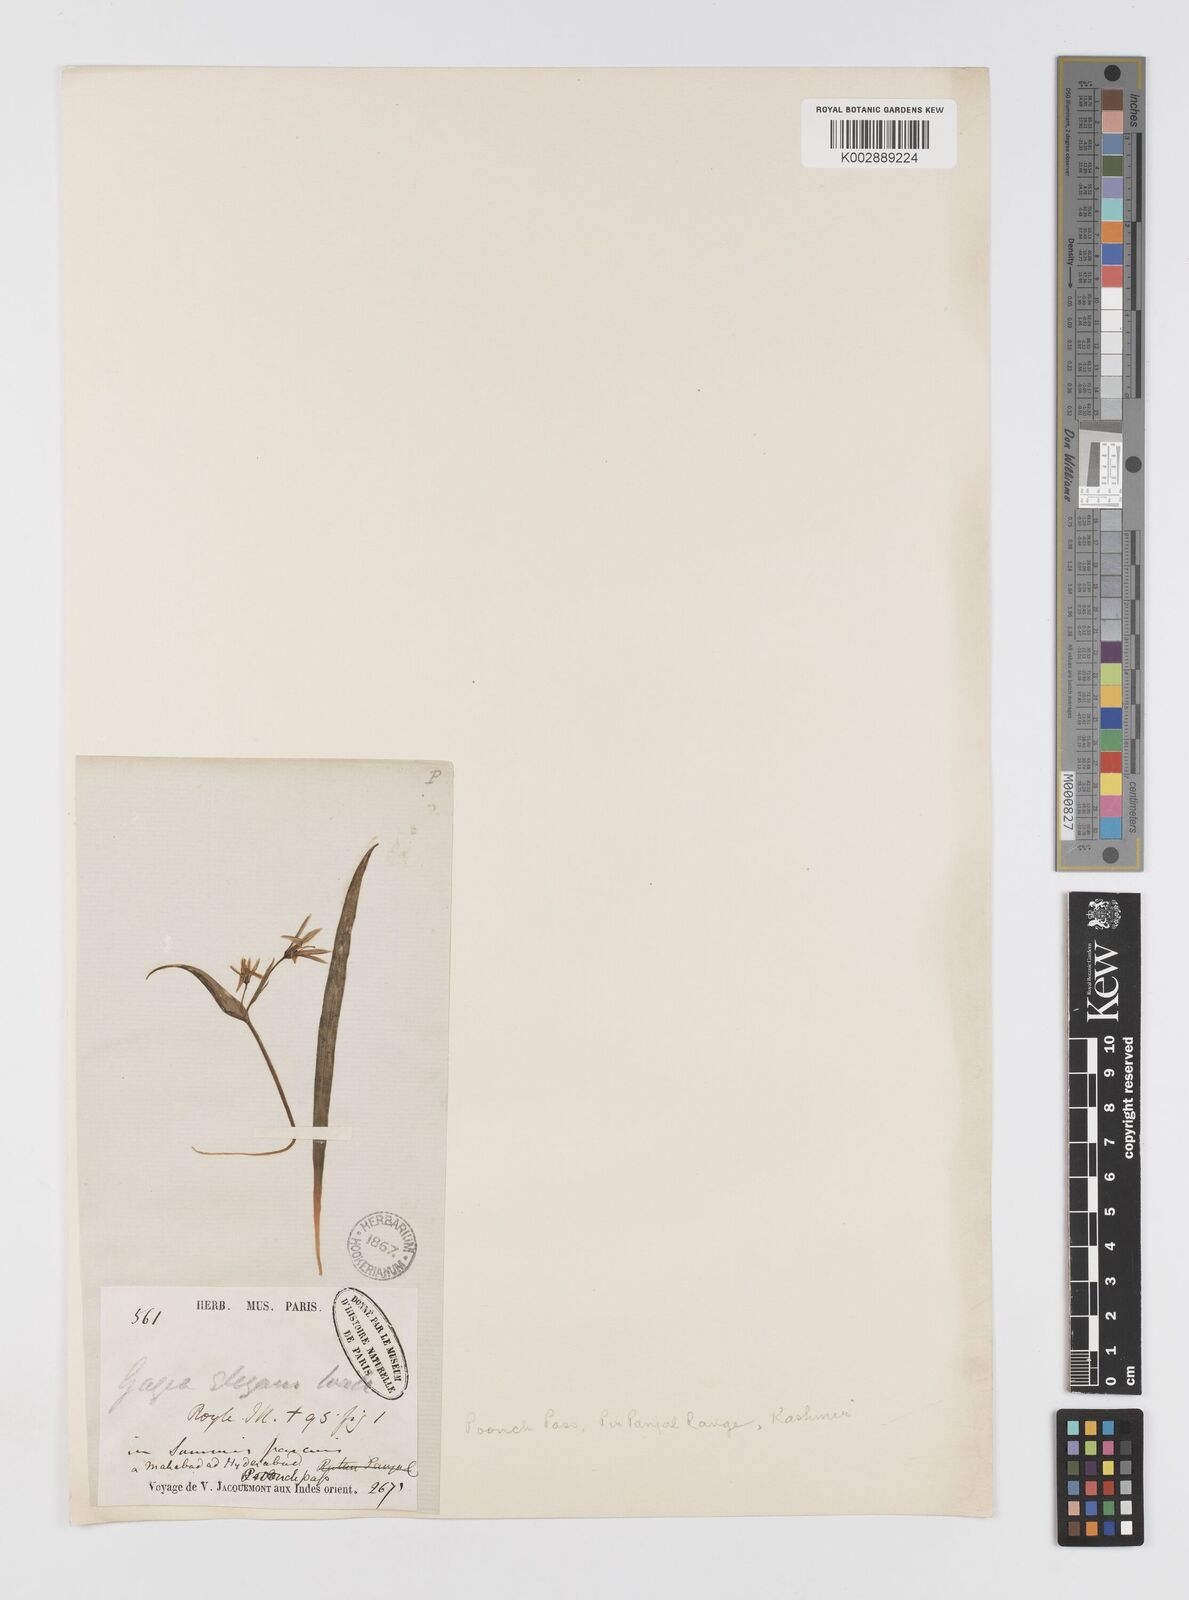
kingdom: Plantae
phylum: Tracheophyta
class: Liliopsida
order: Liliales
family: Liliaceae
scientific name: Liliaceae
